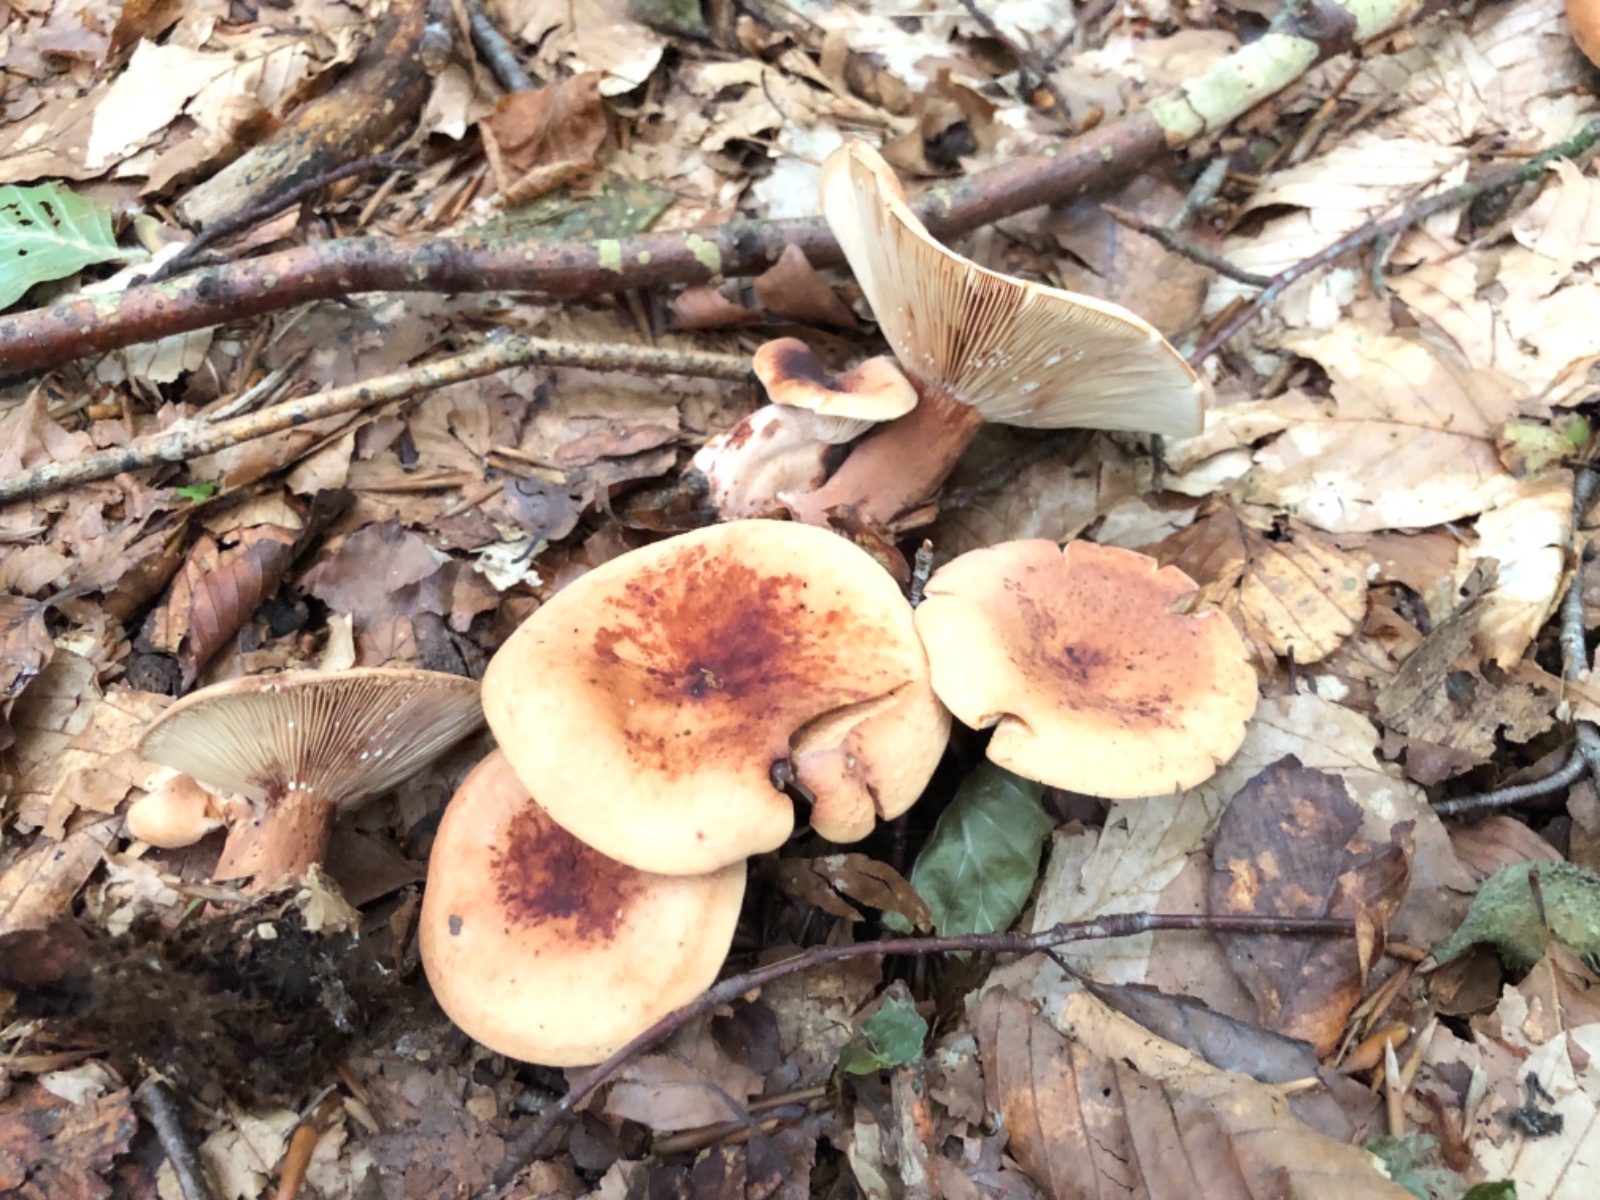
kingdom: Fungi
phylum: Basidiomycota
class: Agaricomycetes
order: Russulales
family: Russulaceae
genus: Lactarius
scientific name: Lactarius rubrocinctus
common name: halsbånd-mælkehat
